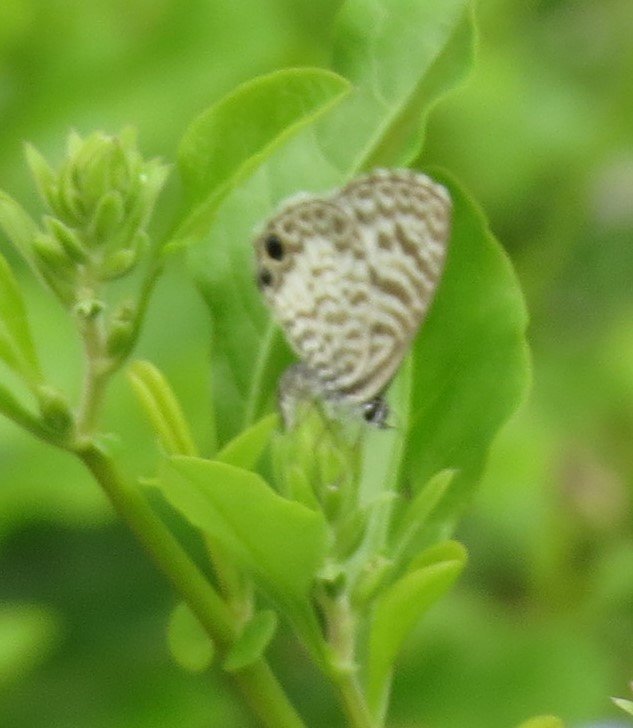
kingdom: Animalia
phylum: Arthropoda
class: Insecta
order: Lepidoptera
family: Lycaenidae
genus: Leptotes
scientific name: Leptotes cassius
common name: Cassius Blue
